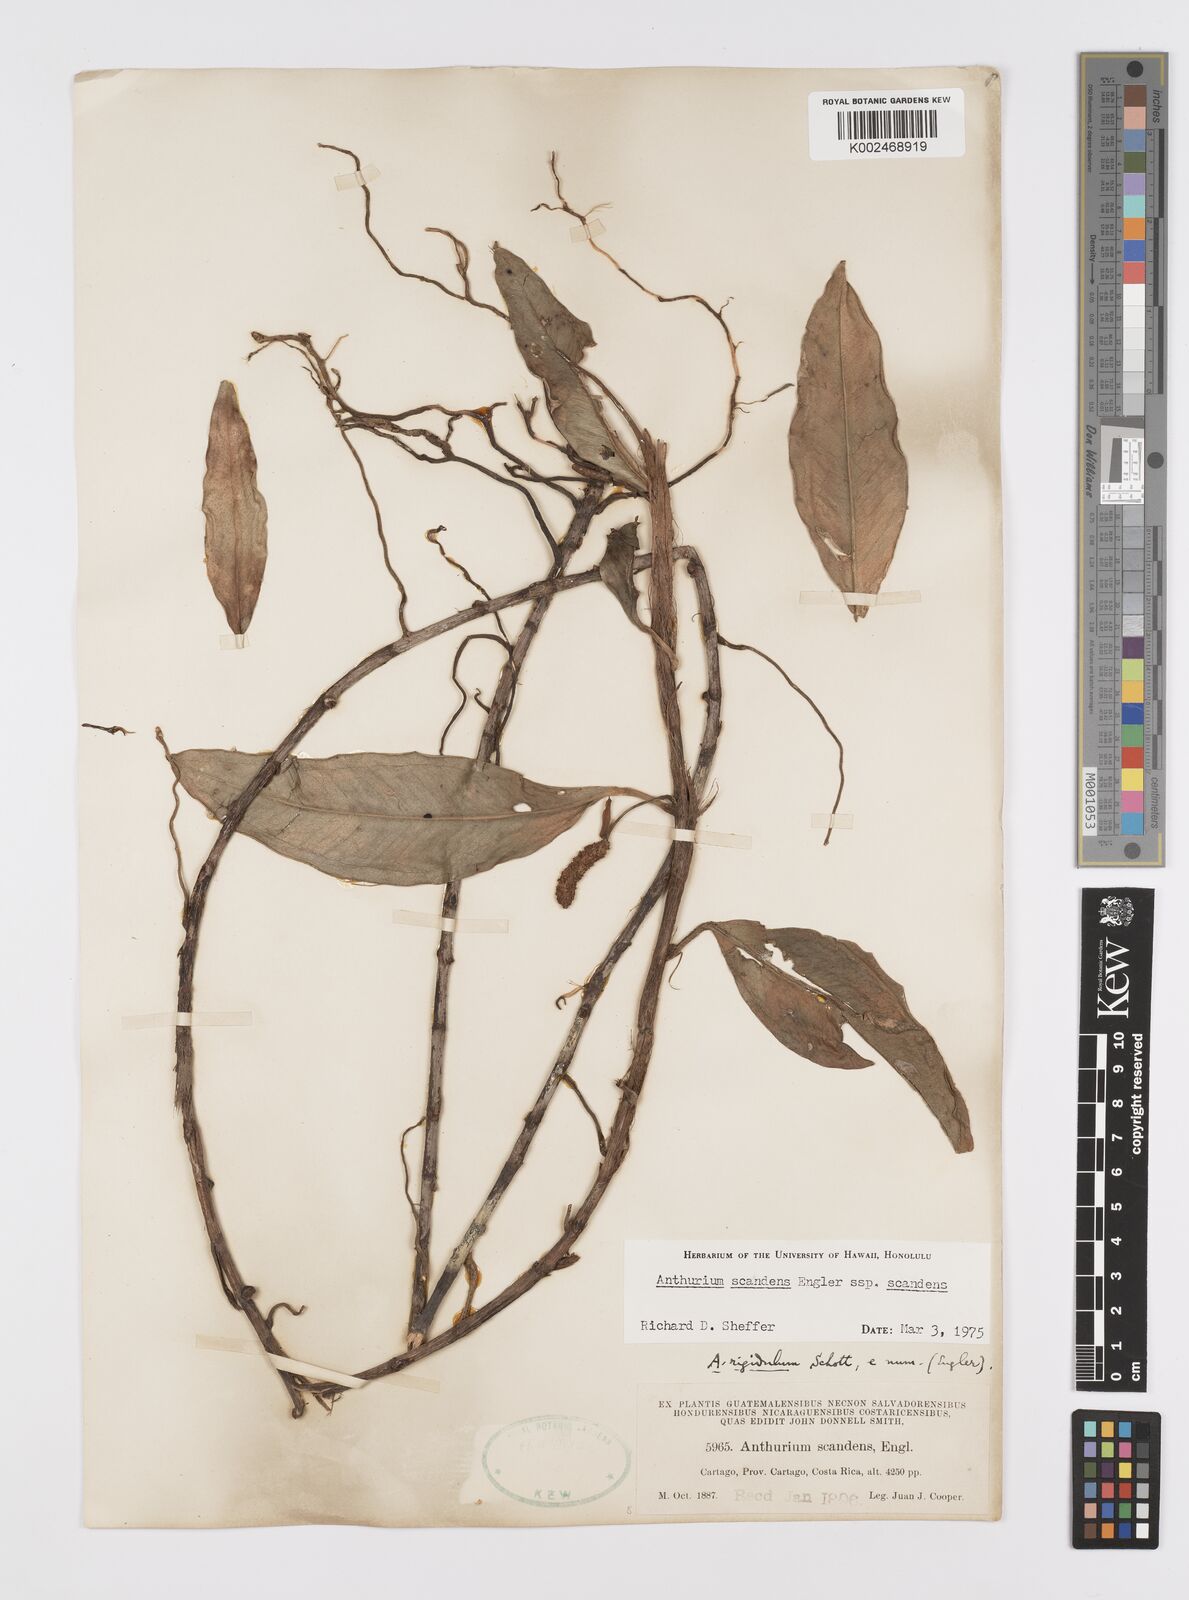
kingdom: Plantae
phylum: Tracheophyta
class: Liliopsida
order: Alismatales
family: Araceae
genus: Anthurium
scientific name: Anthurium scandens
